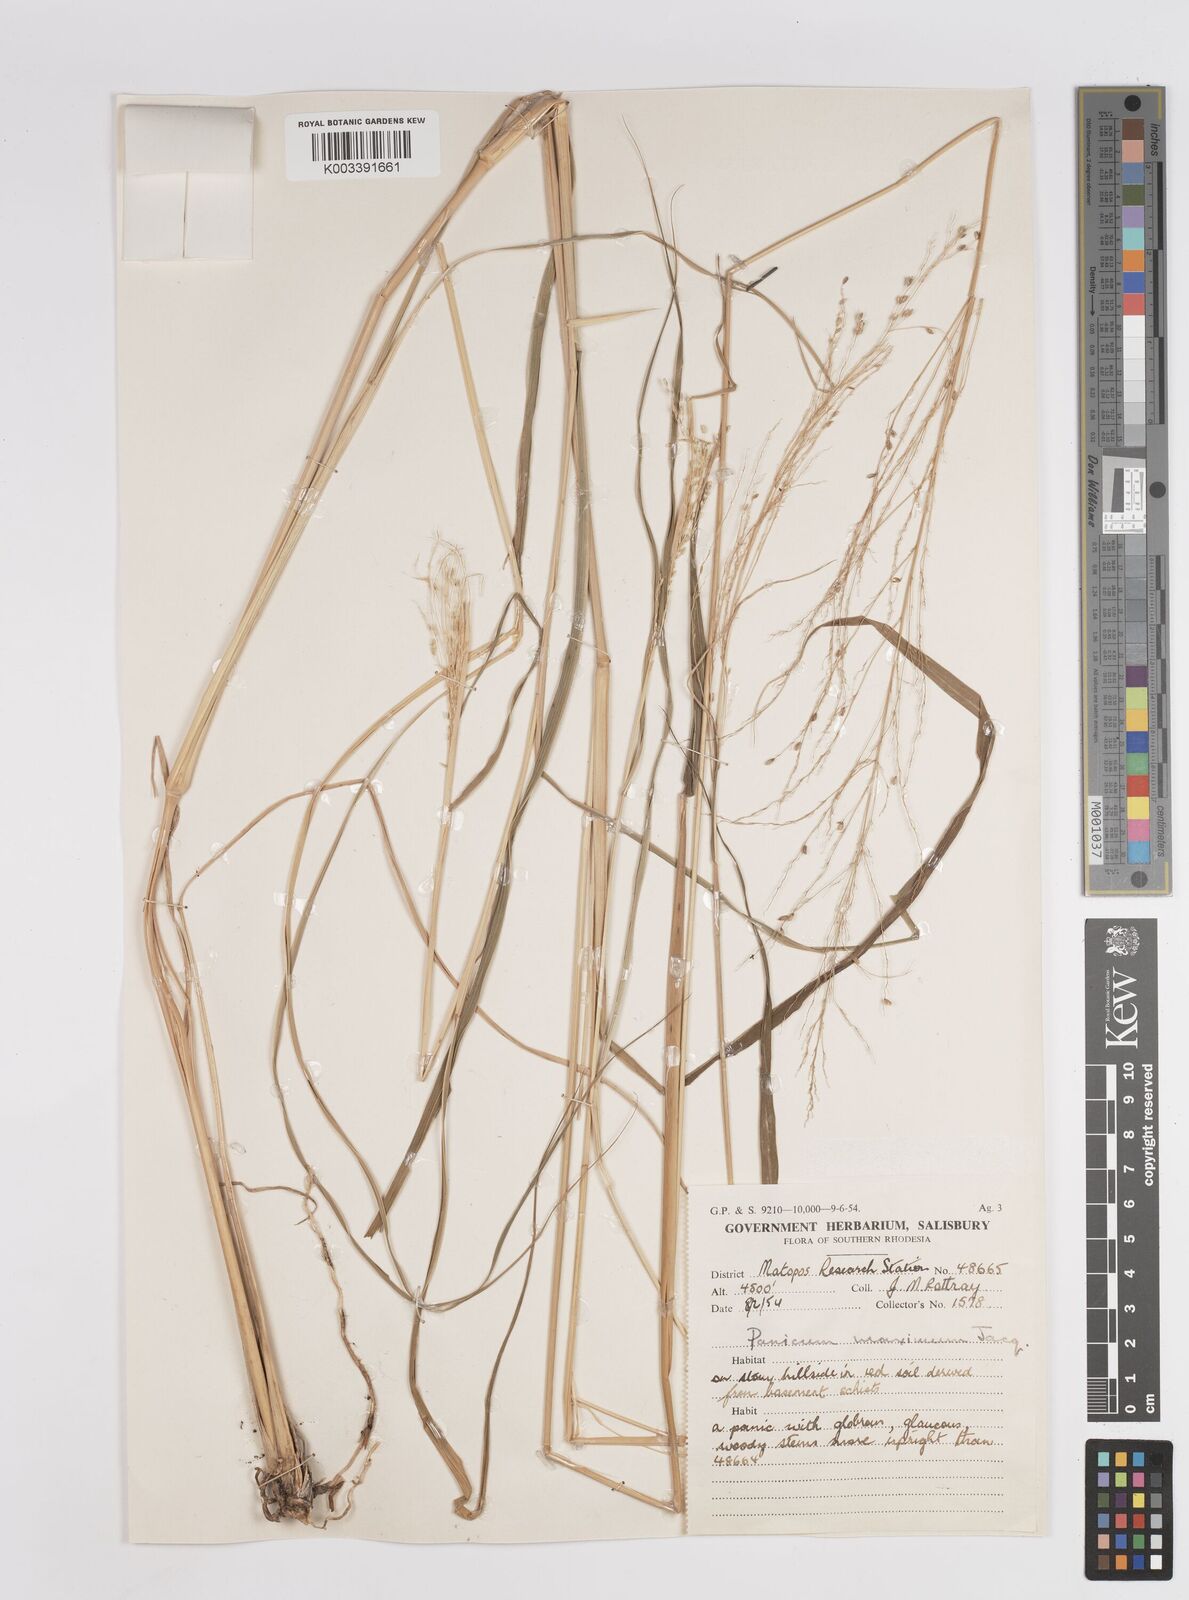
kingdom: Plantae
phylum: Tracheophyta
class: Liliopsida
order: Poales
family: Poaceae
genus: Megathyrsus
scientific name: Megathyrsus maximus
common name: Guineagrass
